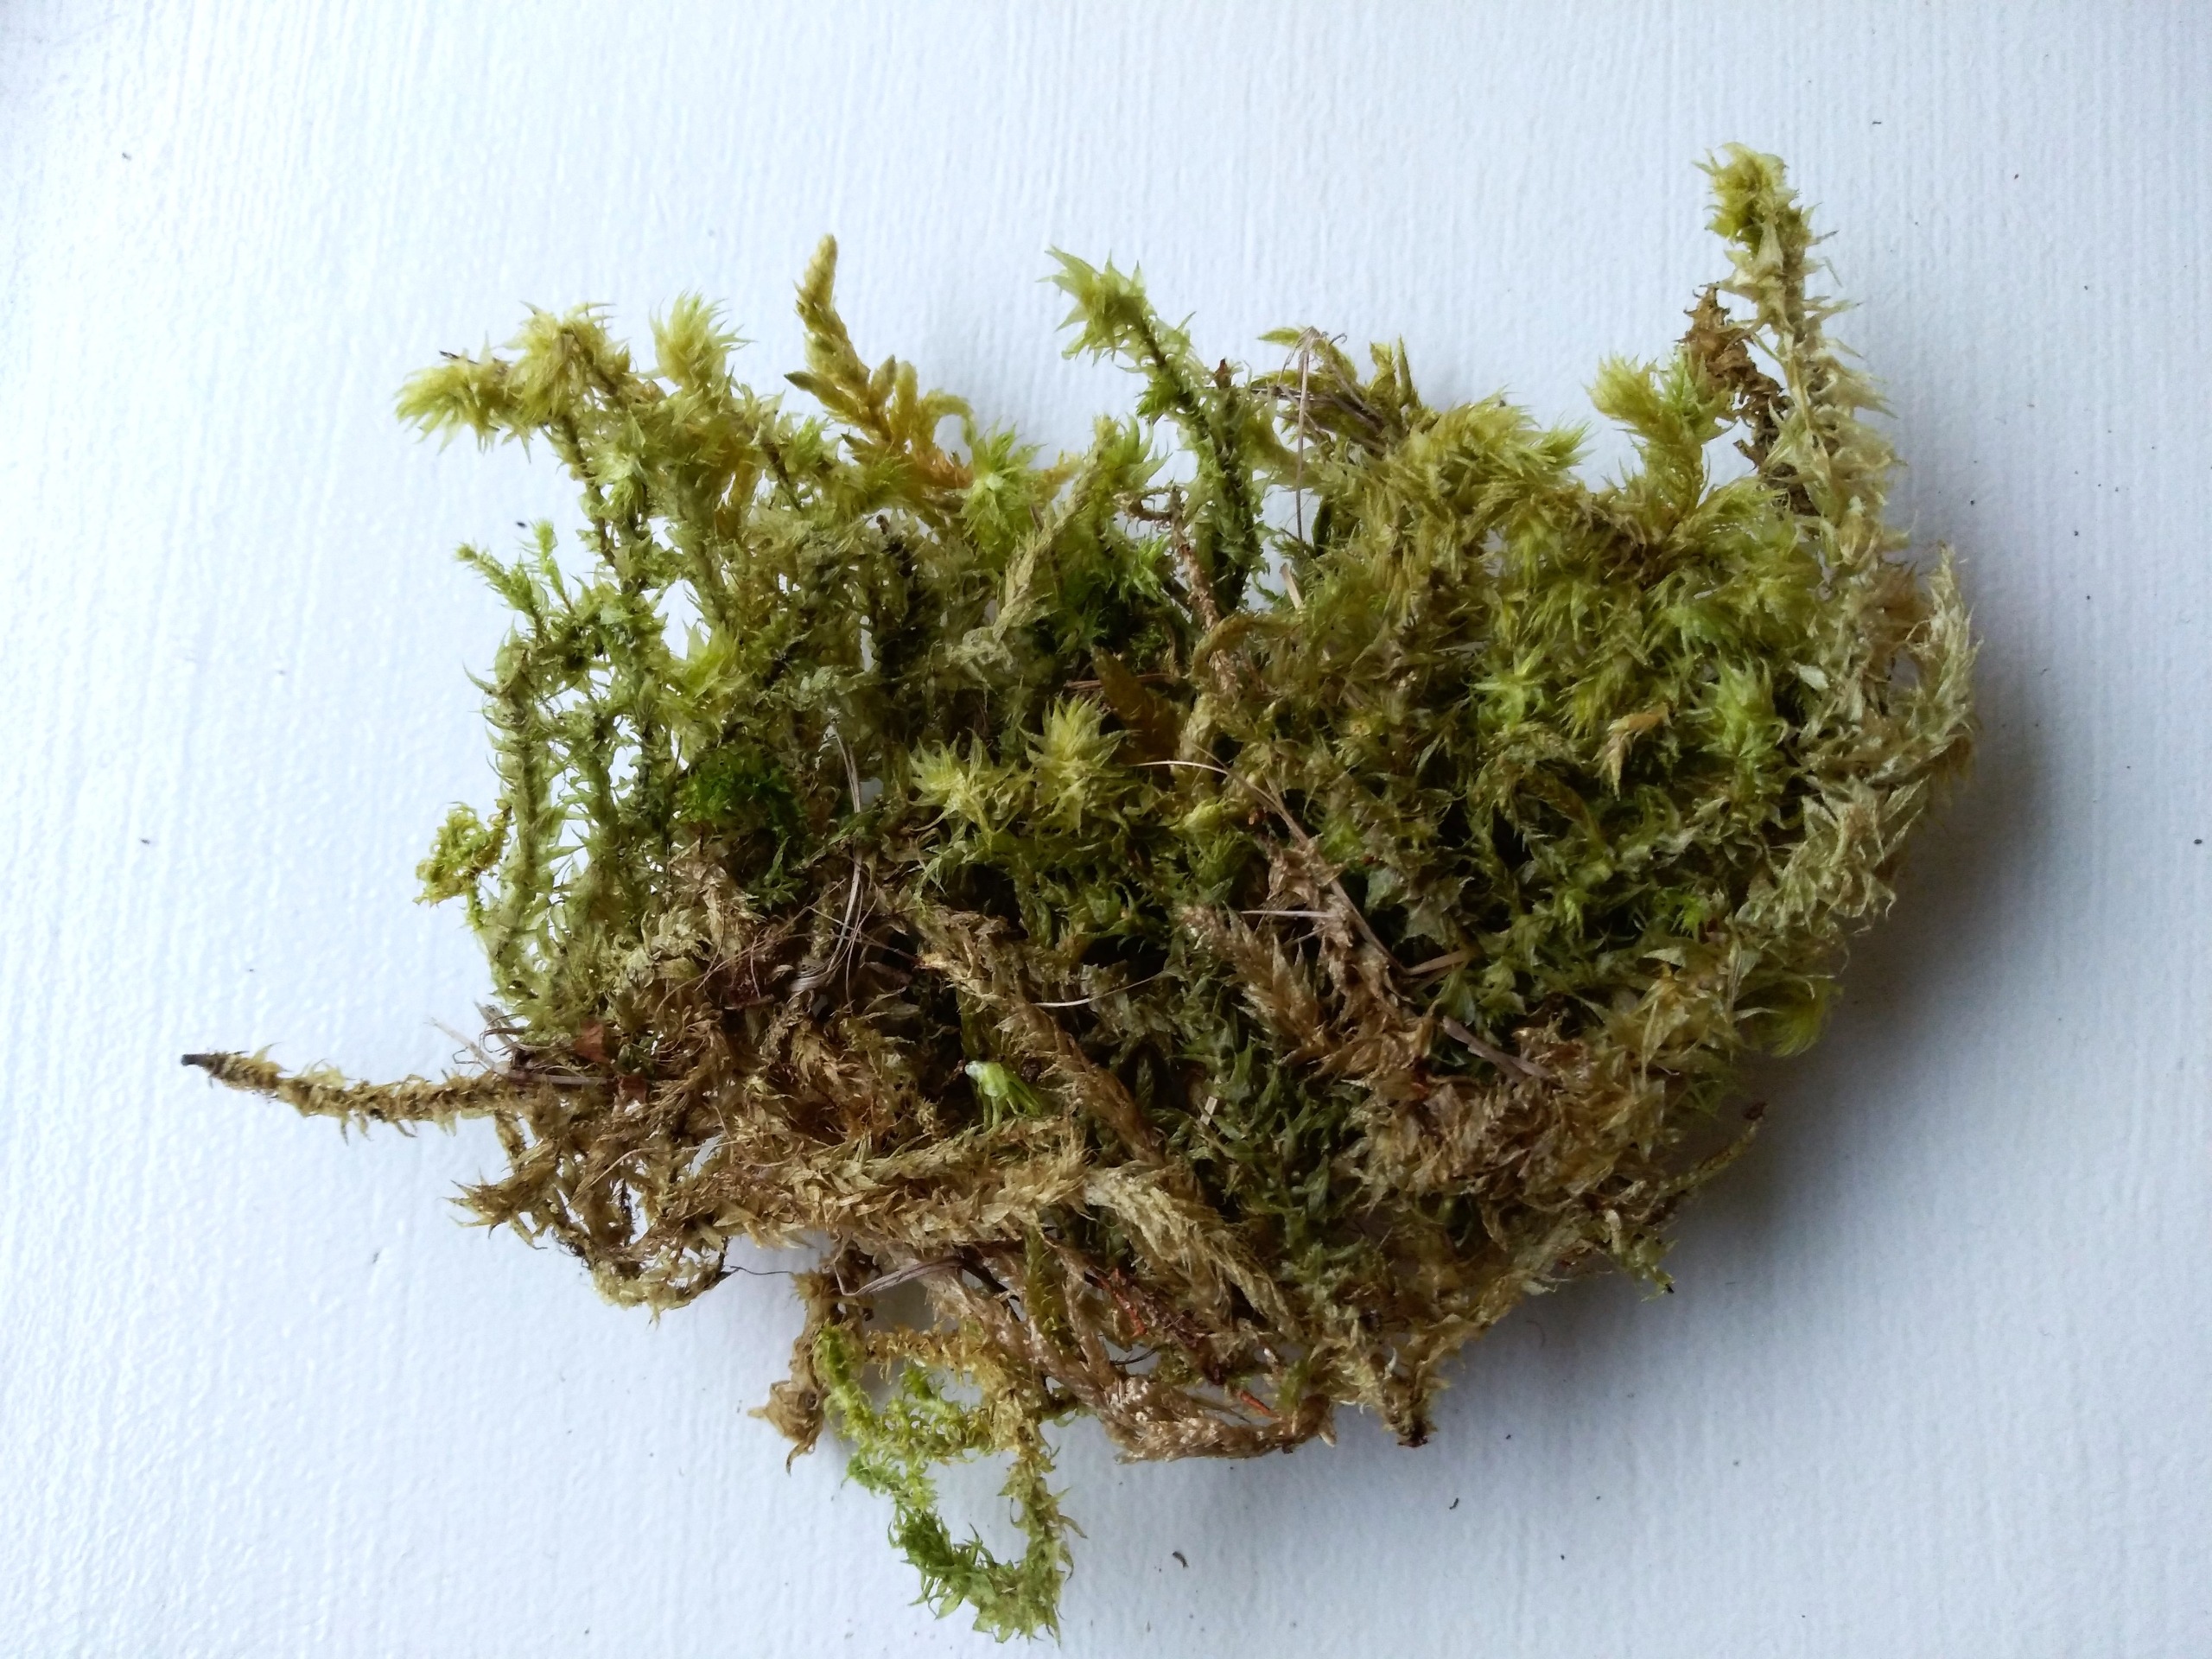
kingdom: Plantae
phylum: Bryophyta
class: Bryopsida
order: Hypnales
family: Hylocomiaceae
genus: Hylocomiadelphus
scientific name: Hylocomiadelphus triquetrus
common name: Stor kransemos
